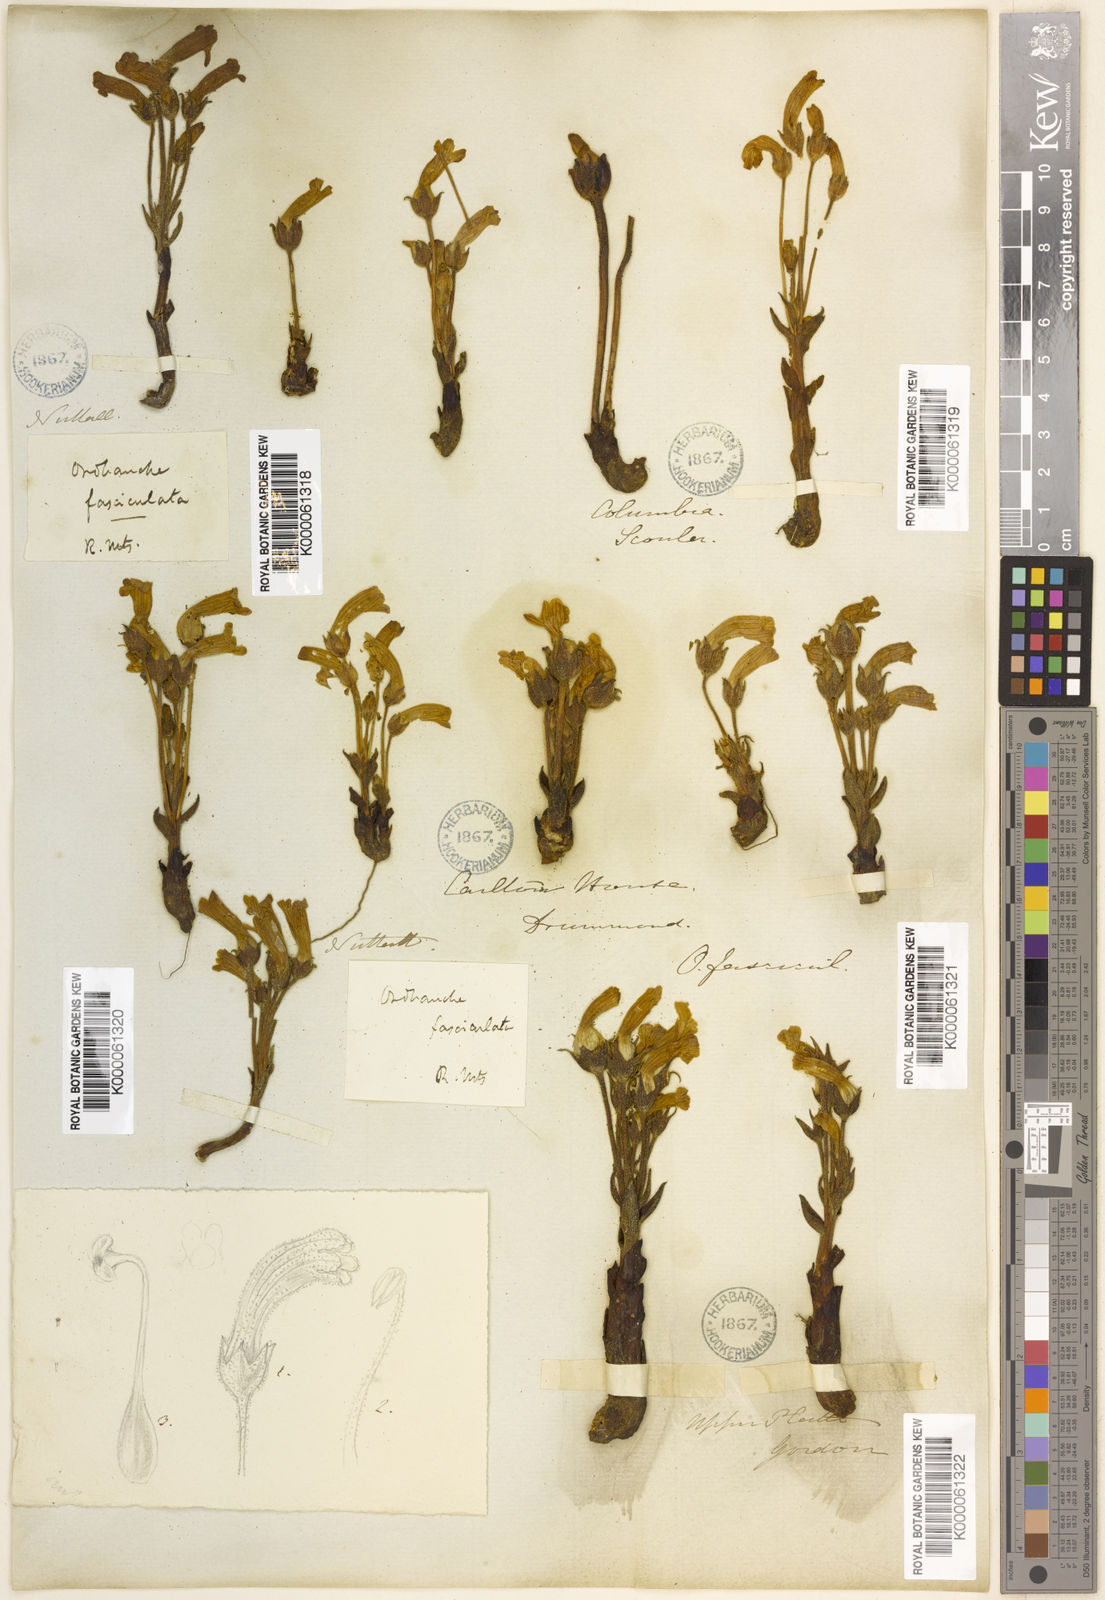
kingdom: Plantae
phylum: Tracheophyta
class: Magnoliopsida
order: Lamiales
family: Orobanchaceae
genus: Aphyllon
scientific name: Aphyllon fasciculatum
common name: Clustered broomrape
